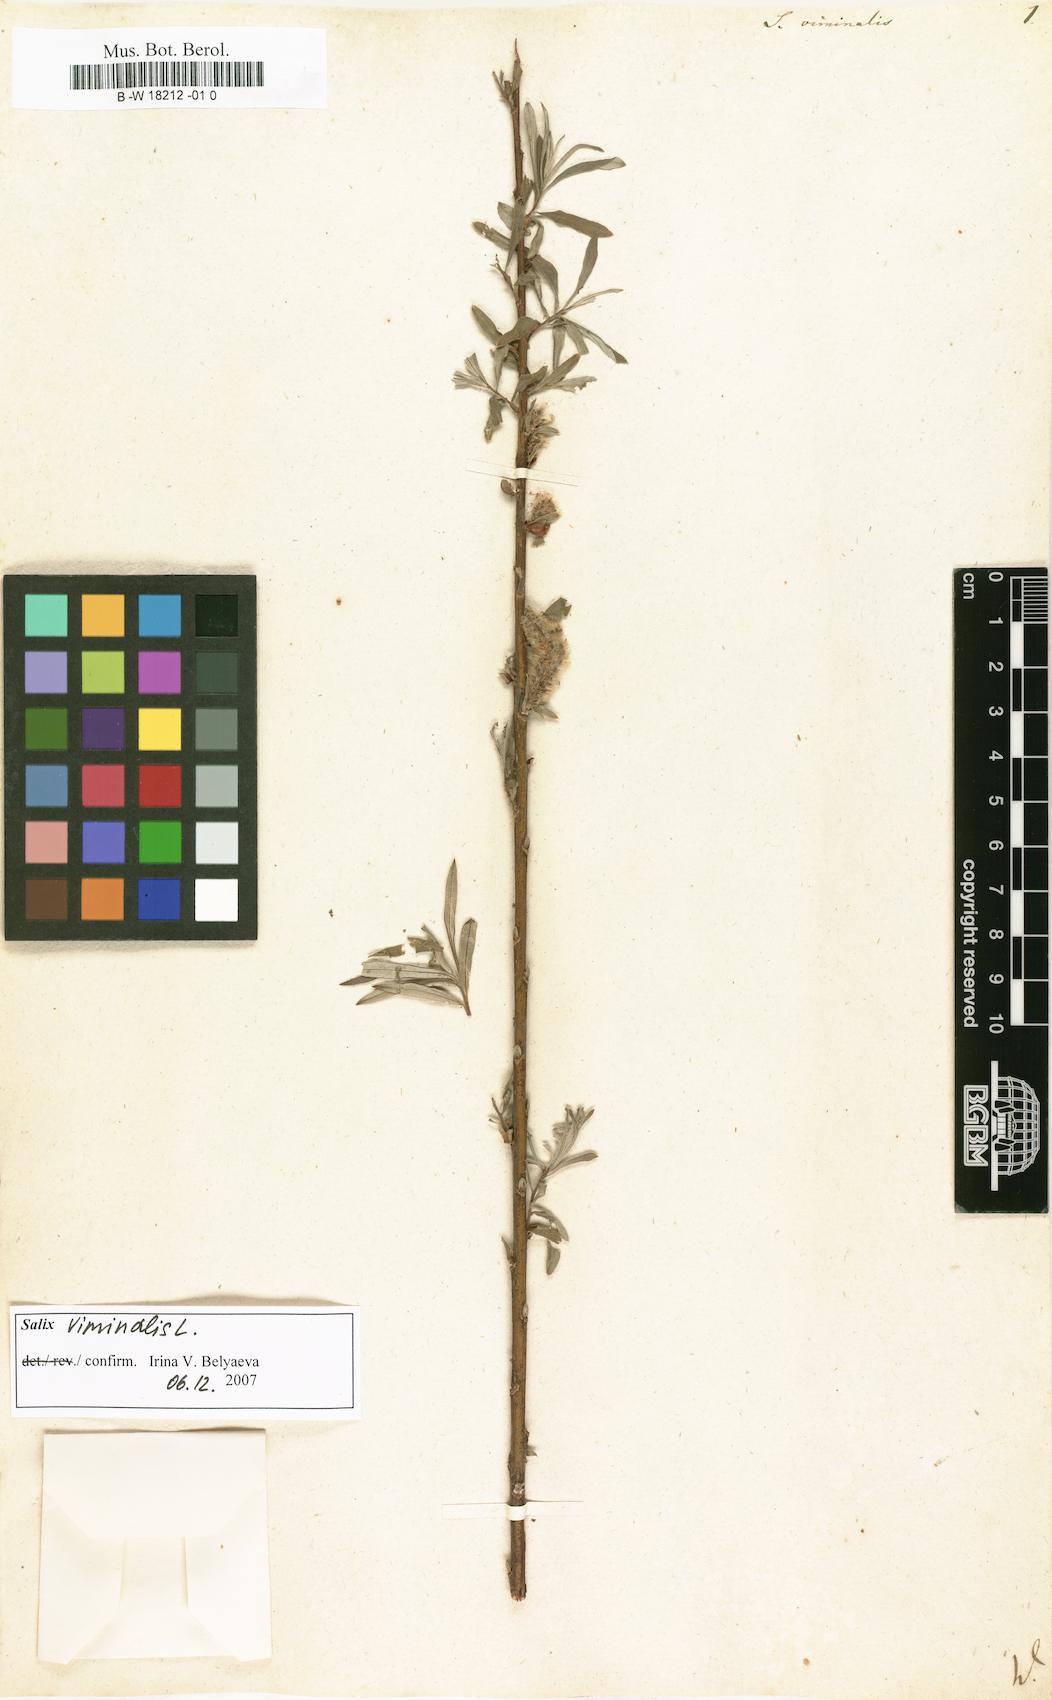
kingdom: Plantae
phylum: Tracheophyta
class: Magnoliopsida
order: Malpighiales
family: Salicaceae
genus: Salix
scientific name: Salix viminalis
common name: Osier
